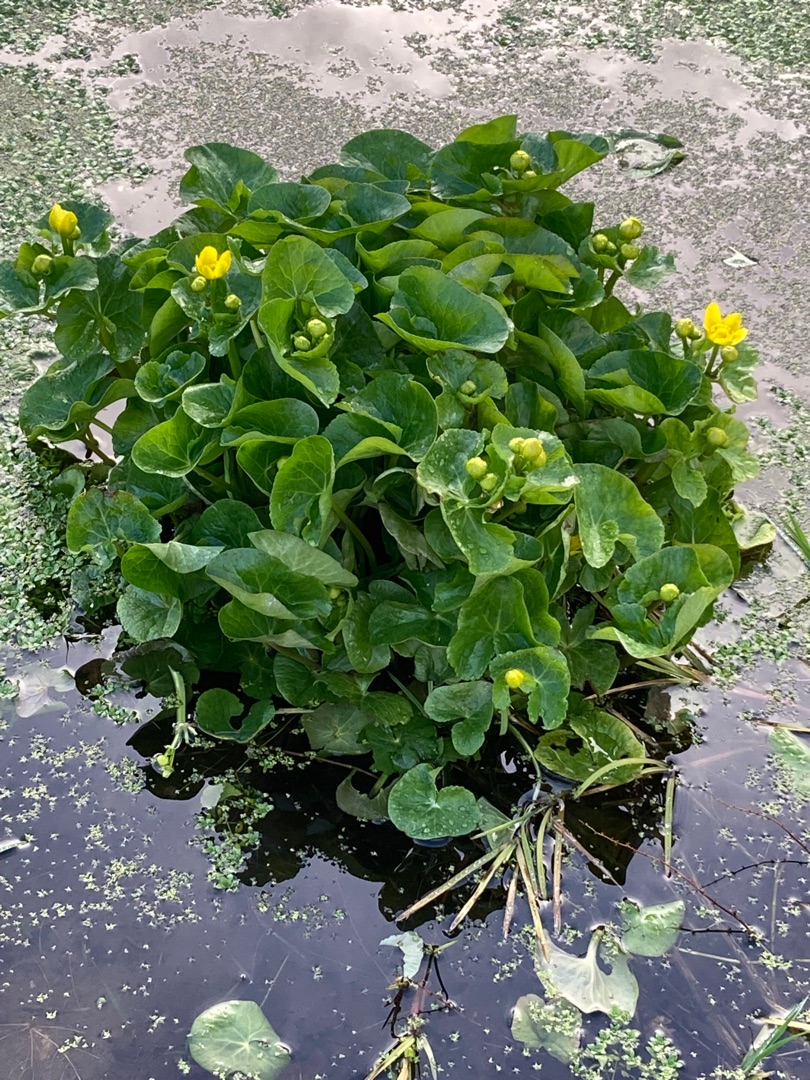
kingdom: Plantae
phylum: Tracheophyta
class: Magnoliopsida
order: Ranunculales
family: Ranunculaceae
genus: Caltha
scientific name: Caltha palustris
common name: Eng-kabbeleje
